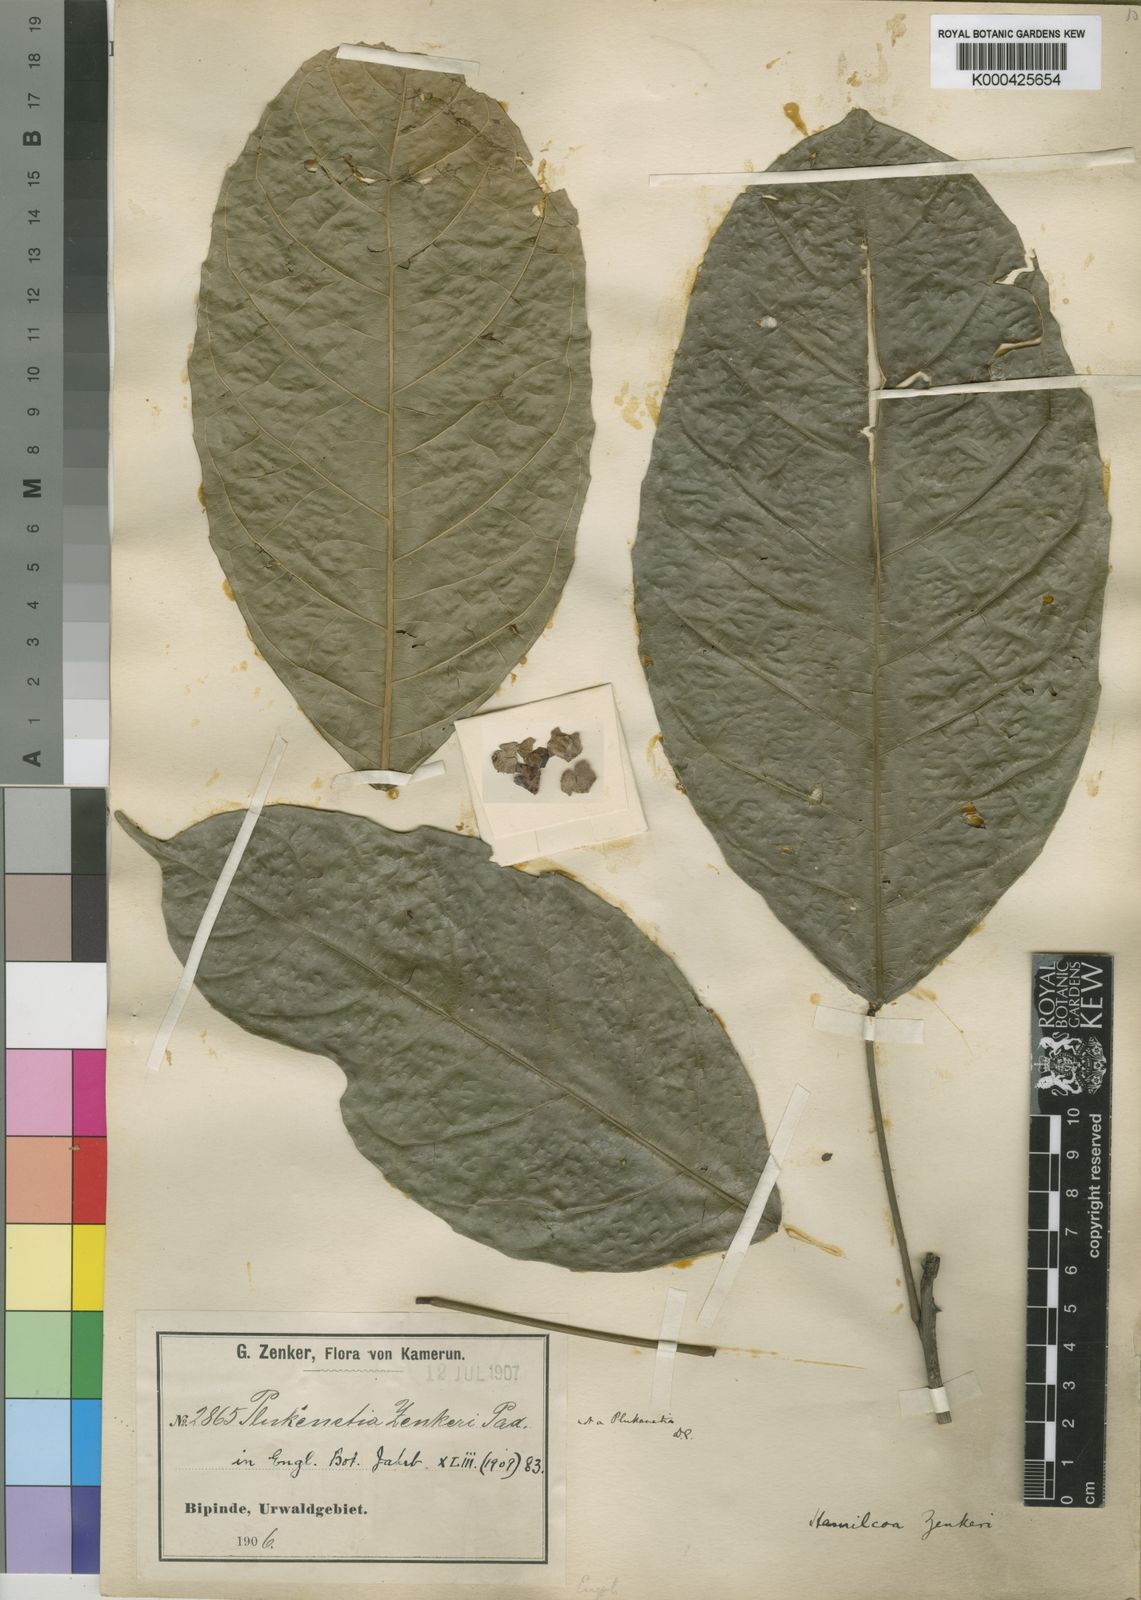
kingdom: Plantae
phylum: Tracheophyta
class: Magnoliopsida
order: Malpighiales
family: Euphorbiaceae
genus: Hamilcoa
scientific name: Hamilcoa zenkeri
